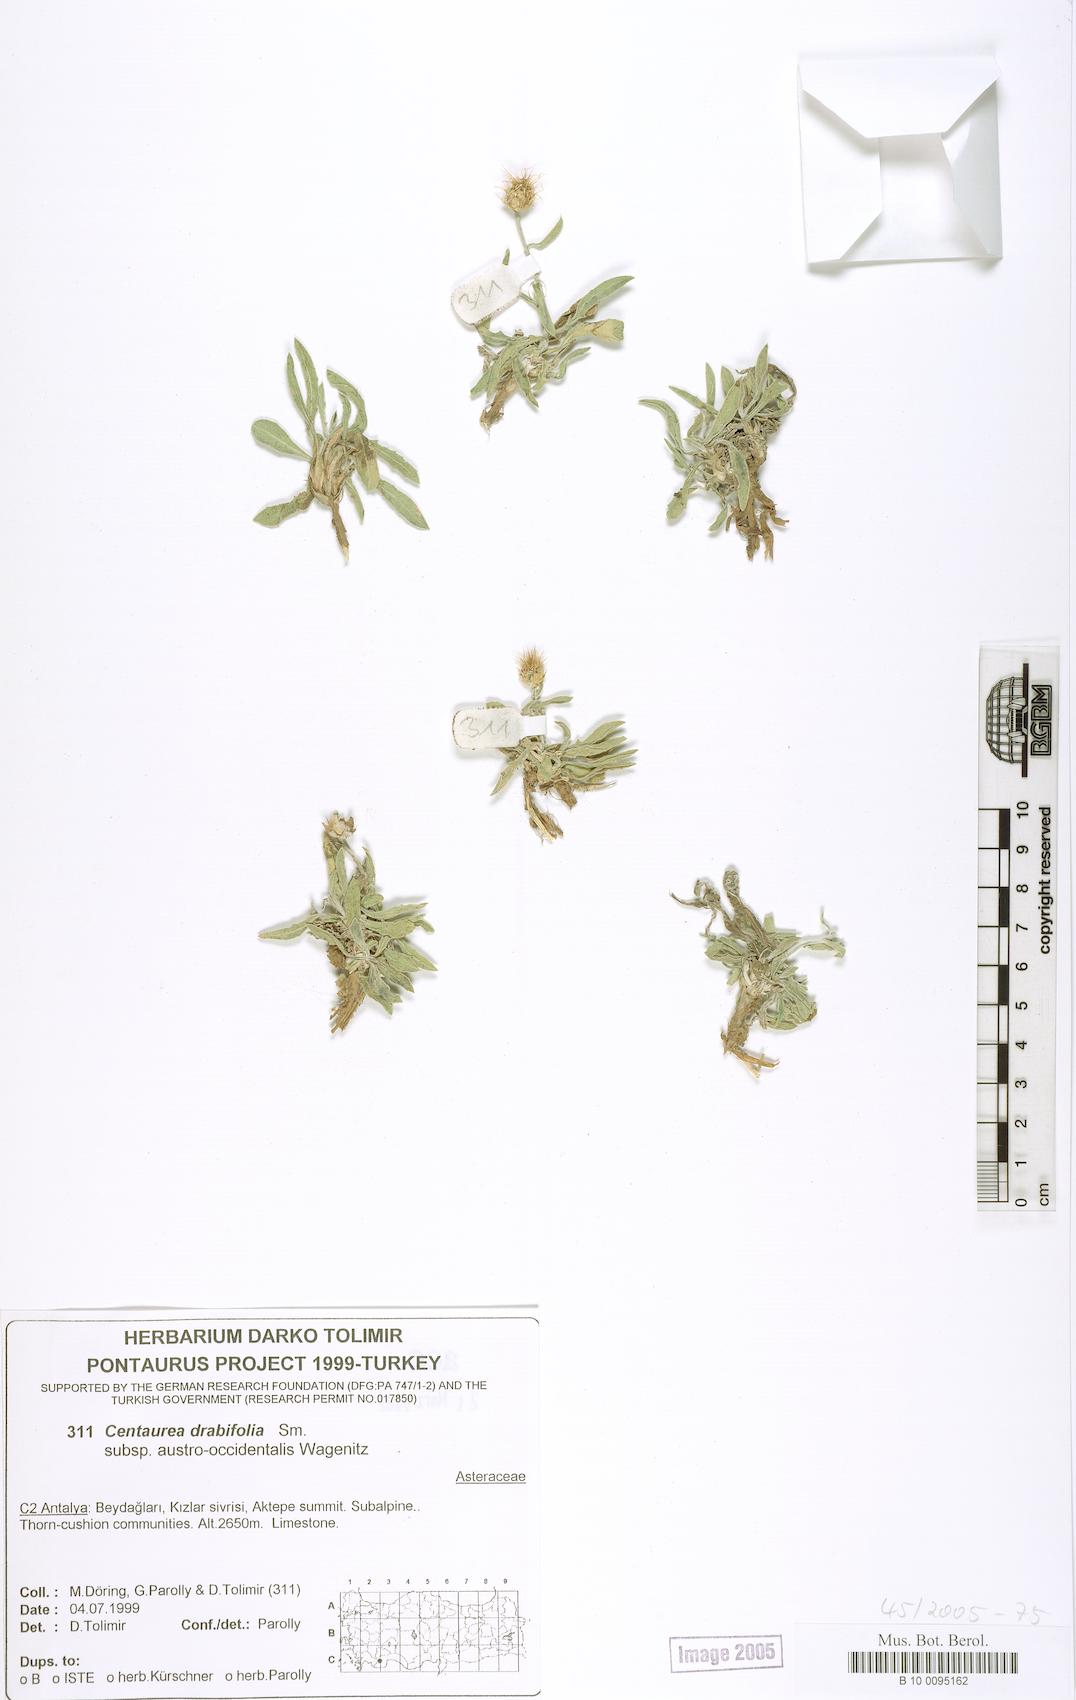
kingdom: Plantae
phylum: Tracheophyta
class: Magnoliopsida
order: Asterales
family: Asteraceae
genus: Centaurea
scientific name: Centaurea drabifolia
